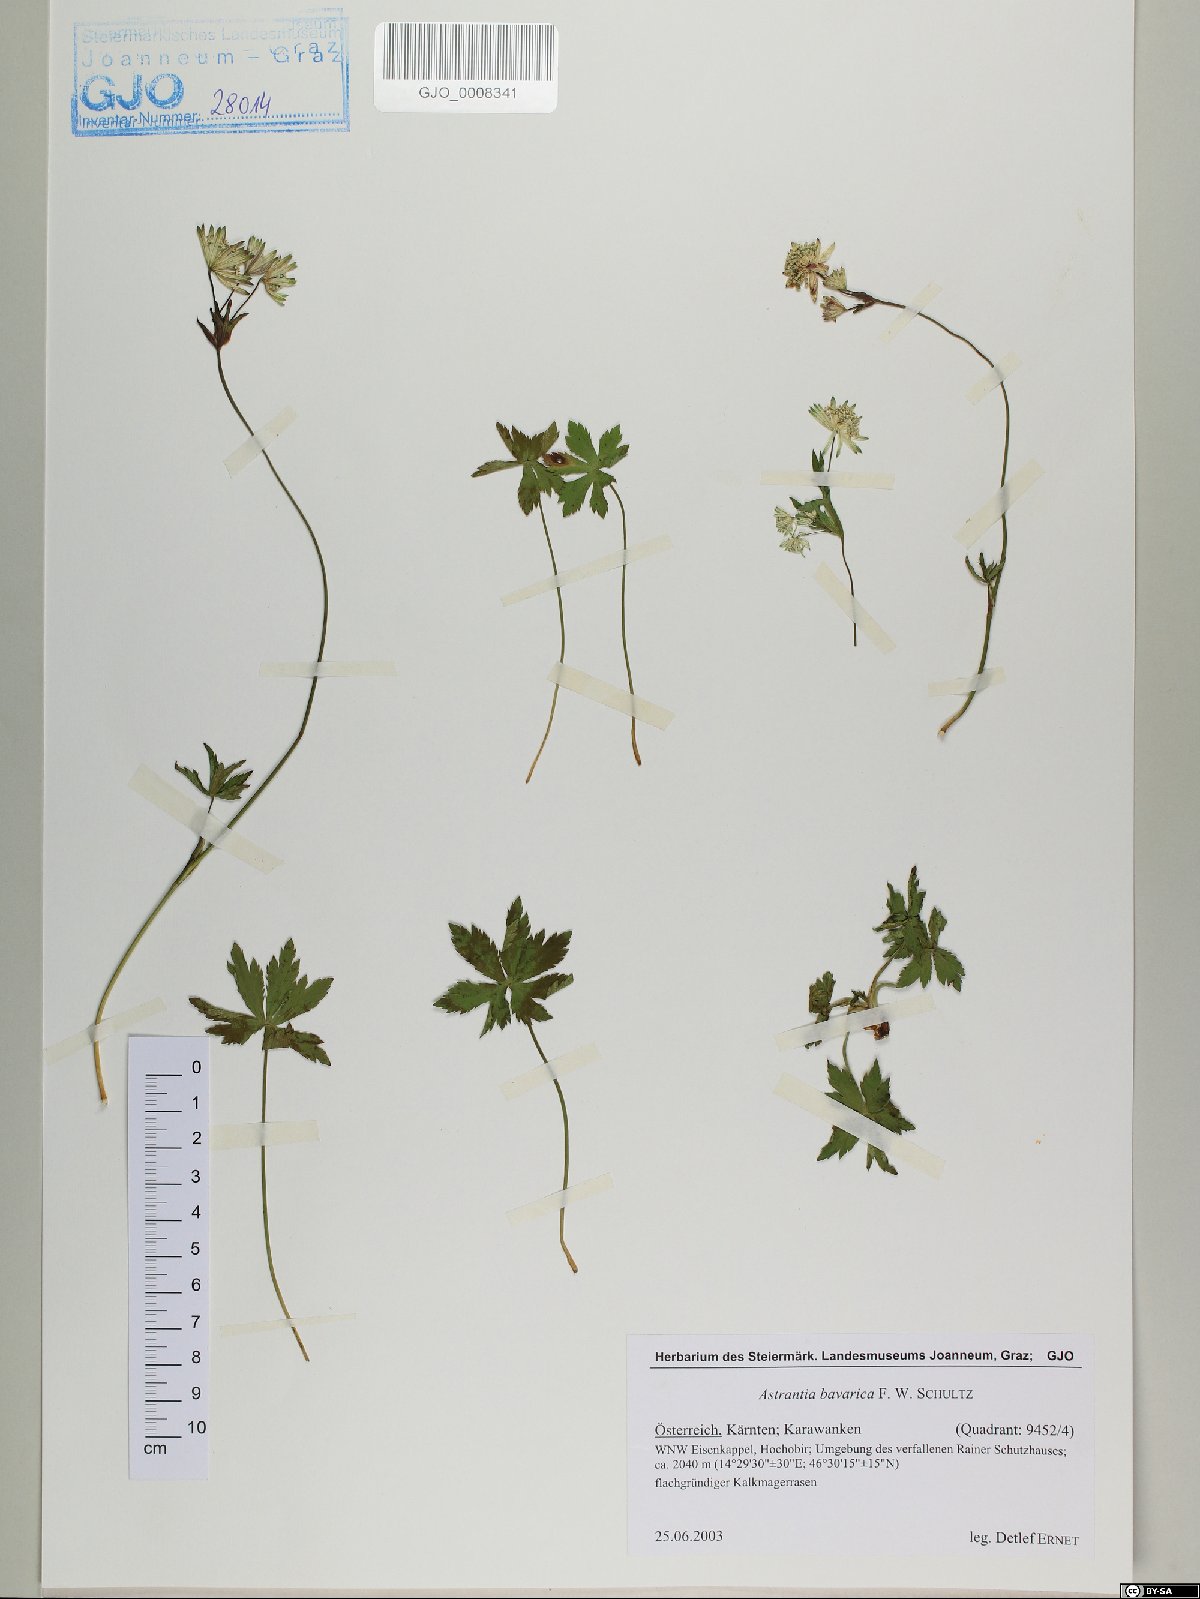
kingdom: Plantae
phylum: Tracheophyta
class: Magnoliopsida
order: Apiales
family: Apiaceae
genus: Astrantia
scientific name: Astrantia bavarica
